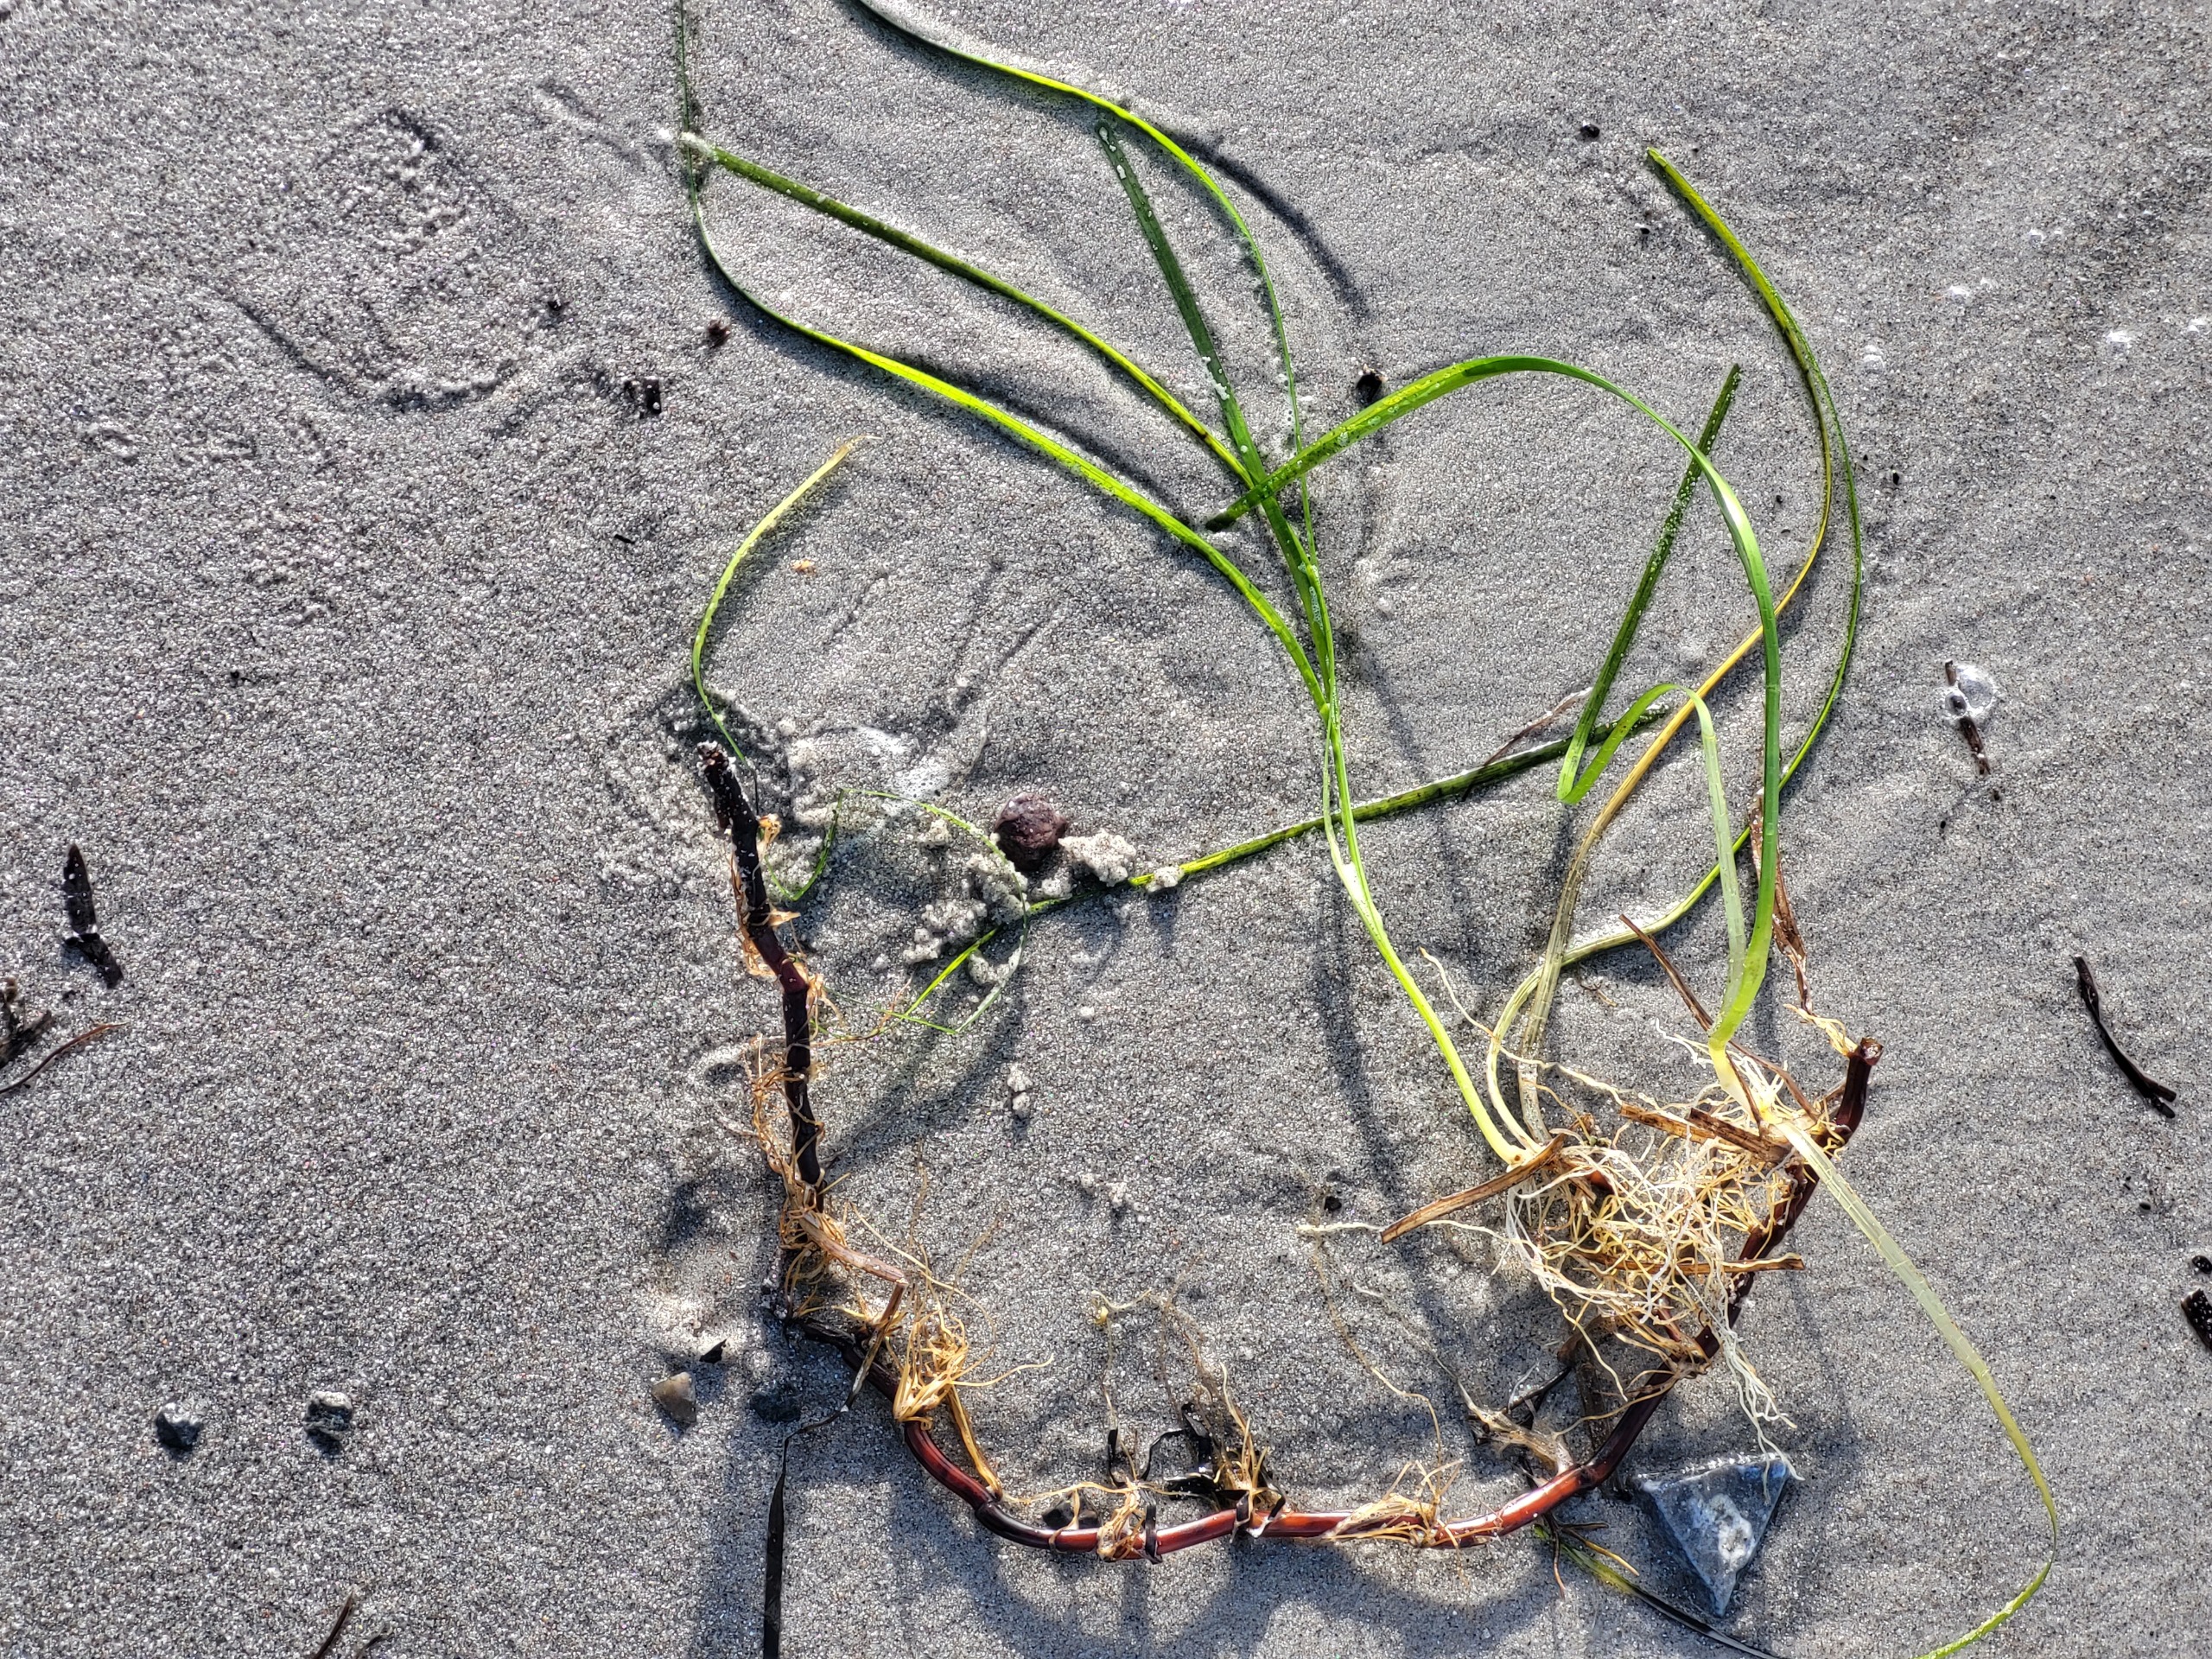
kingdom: Plantae
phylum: Tracheophyta
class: Liliopsida
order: Alismatales
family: Zosteraceae
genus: Zostera
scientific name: Zostera marina
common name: Almindelig bændeltang
